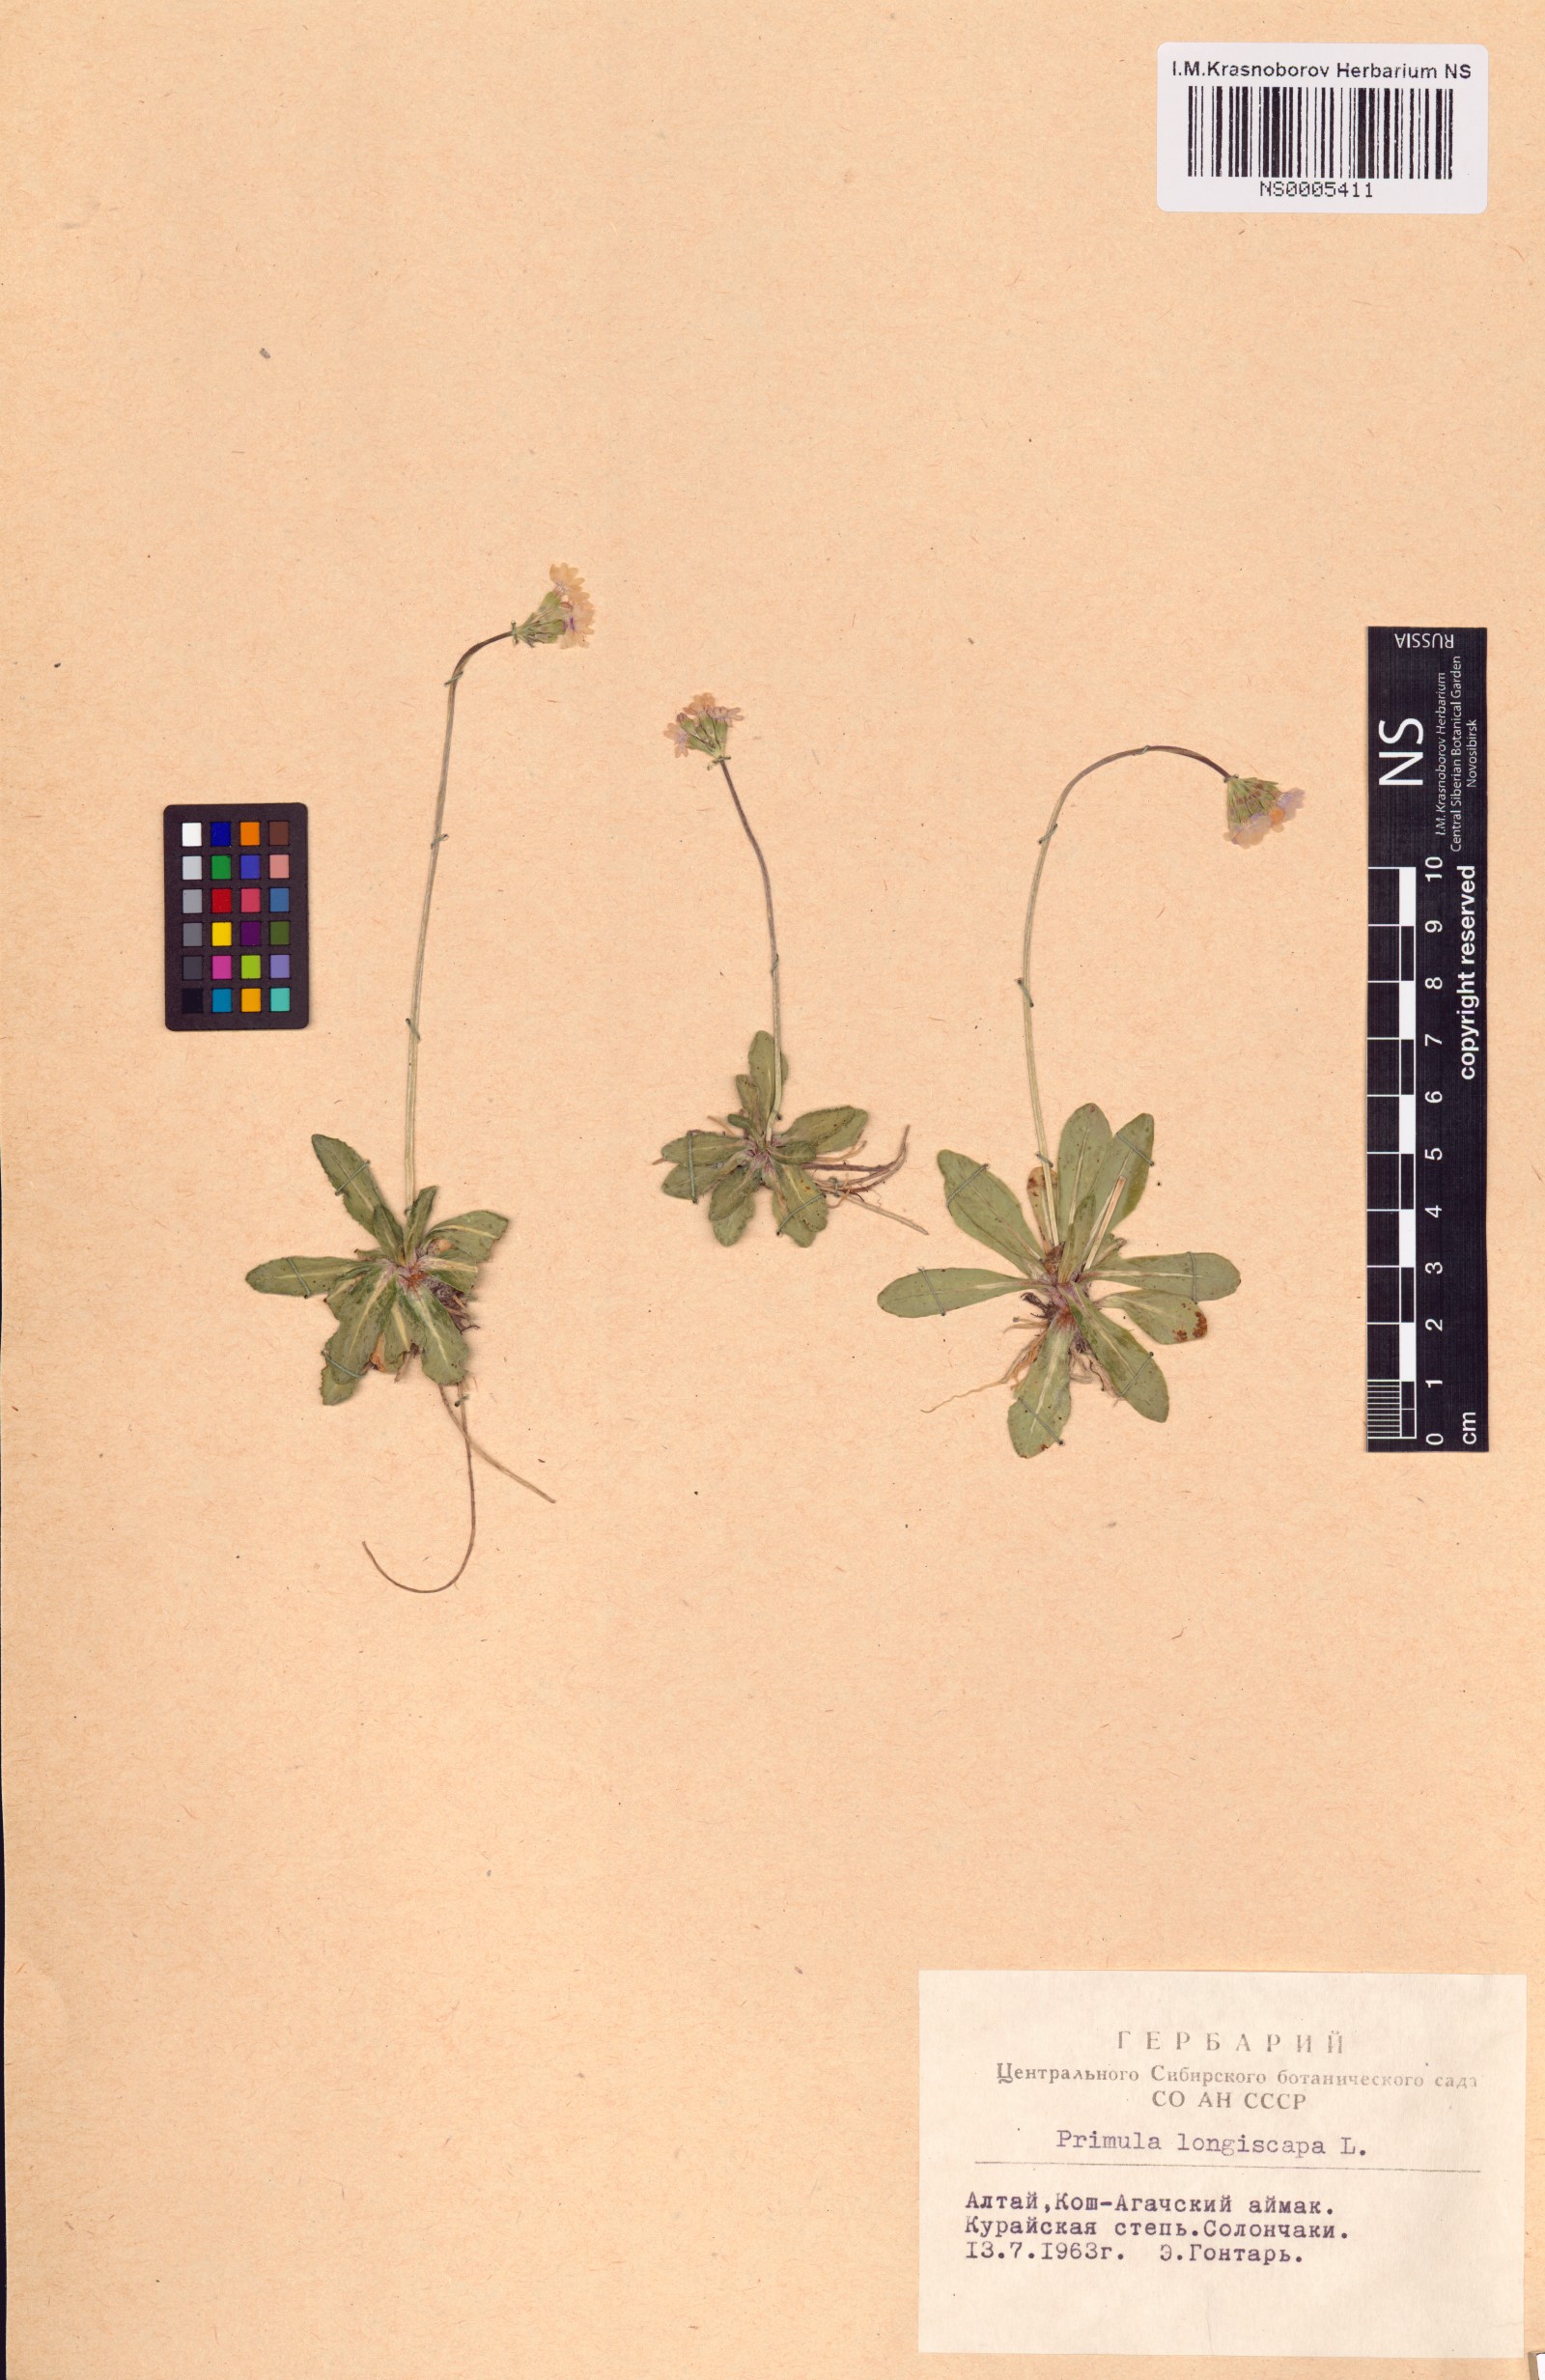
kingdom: Plantae
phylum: Tracheophyta
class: Magnoliopsida
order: Ericales
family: Primulaceae
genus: Primula
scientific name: Primula longiscapa
